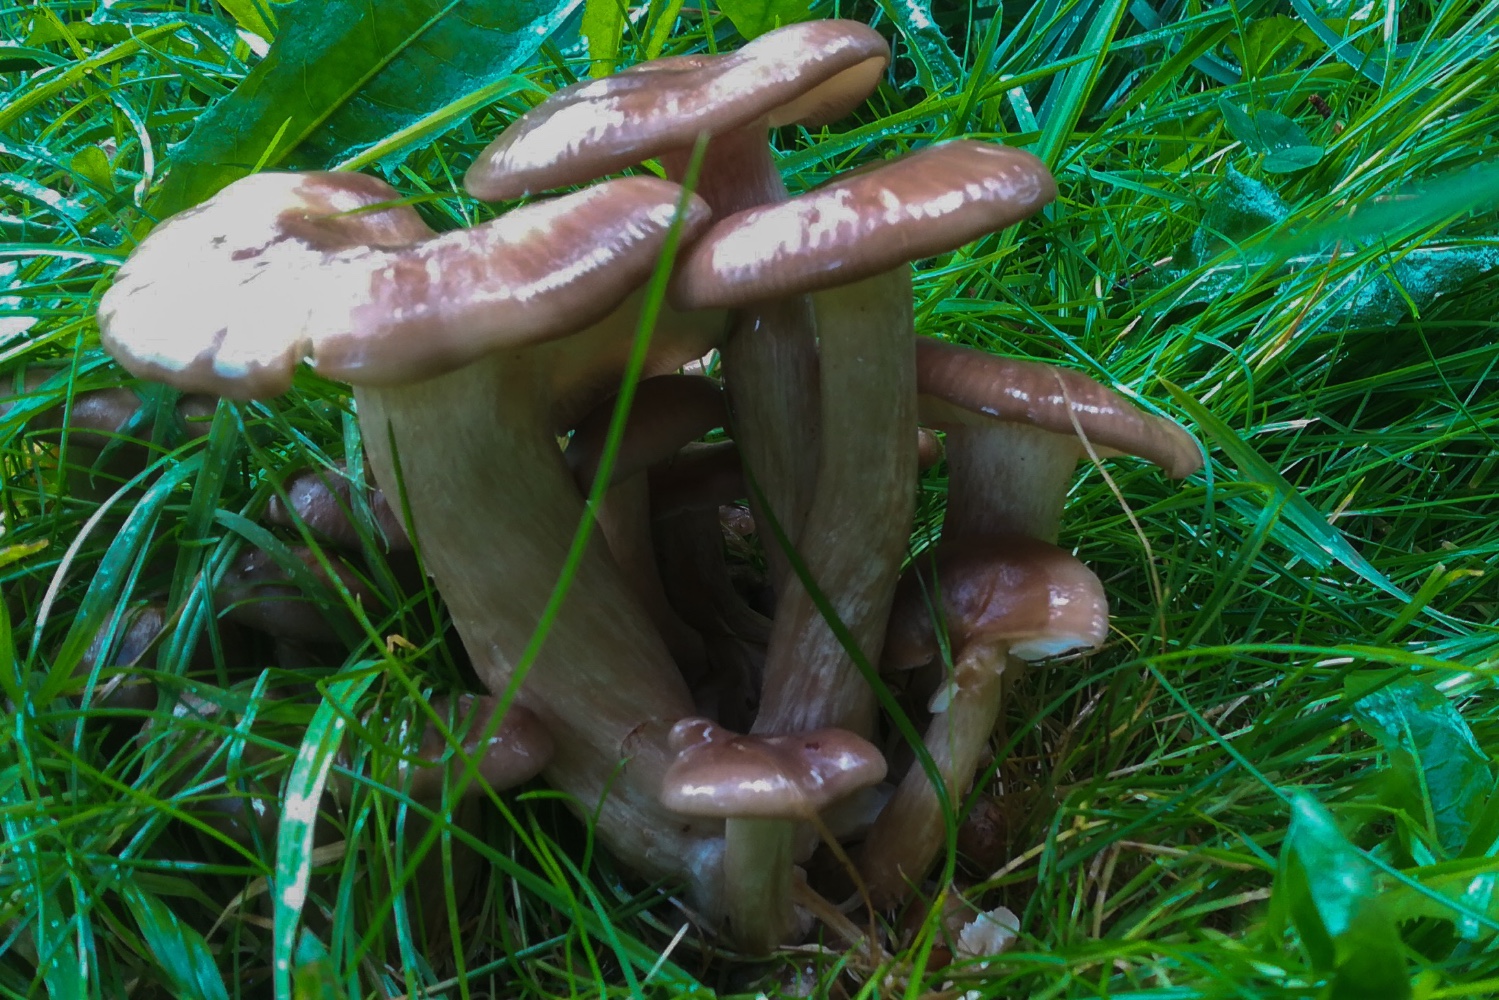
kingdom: Fungi
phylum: Basidiomycota
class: Agaricomycetes
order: Agaricales
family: Lyophyllaceae
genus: Lyophyllum
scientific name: Lyophyllum decastes
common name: røggrå gråblad
